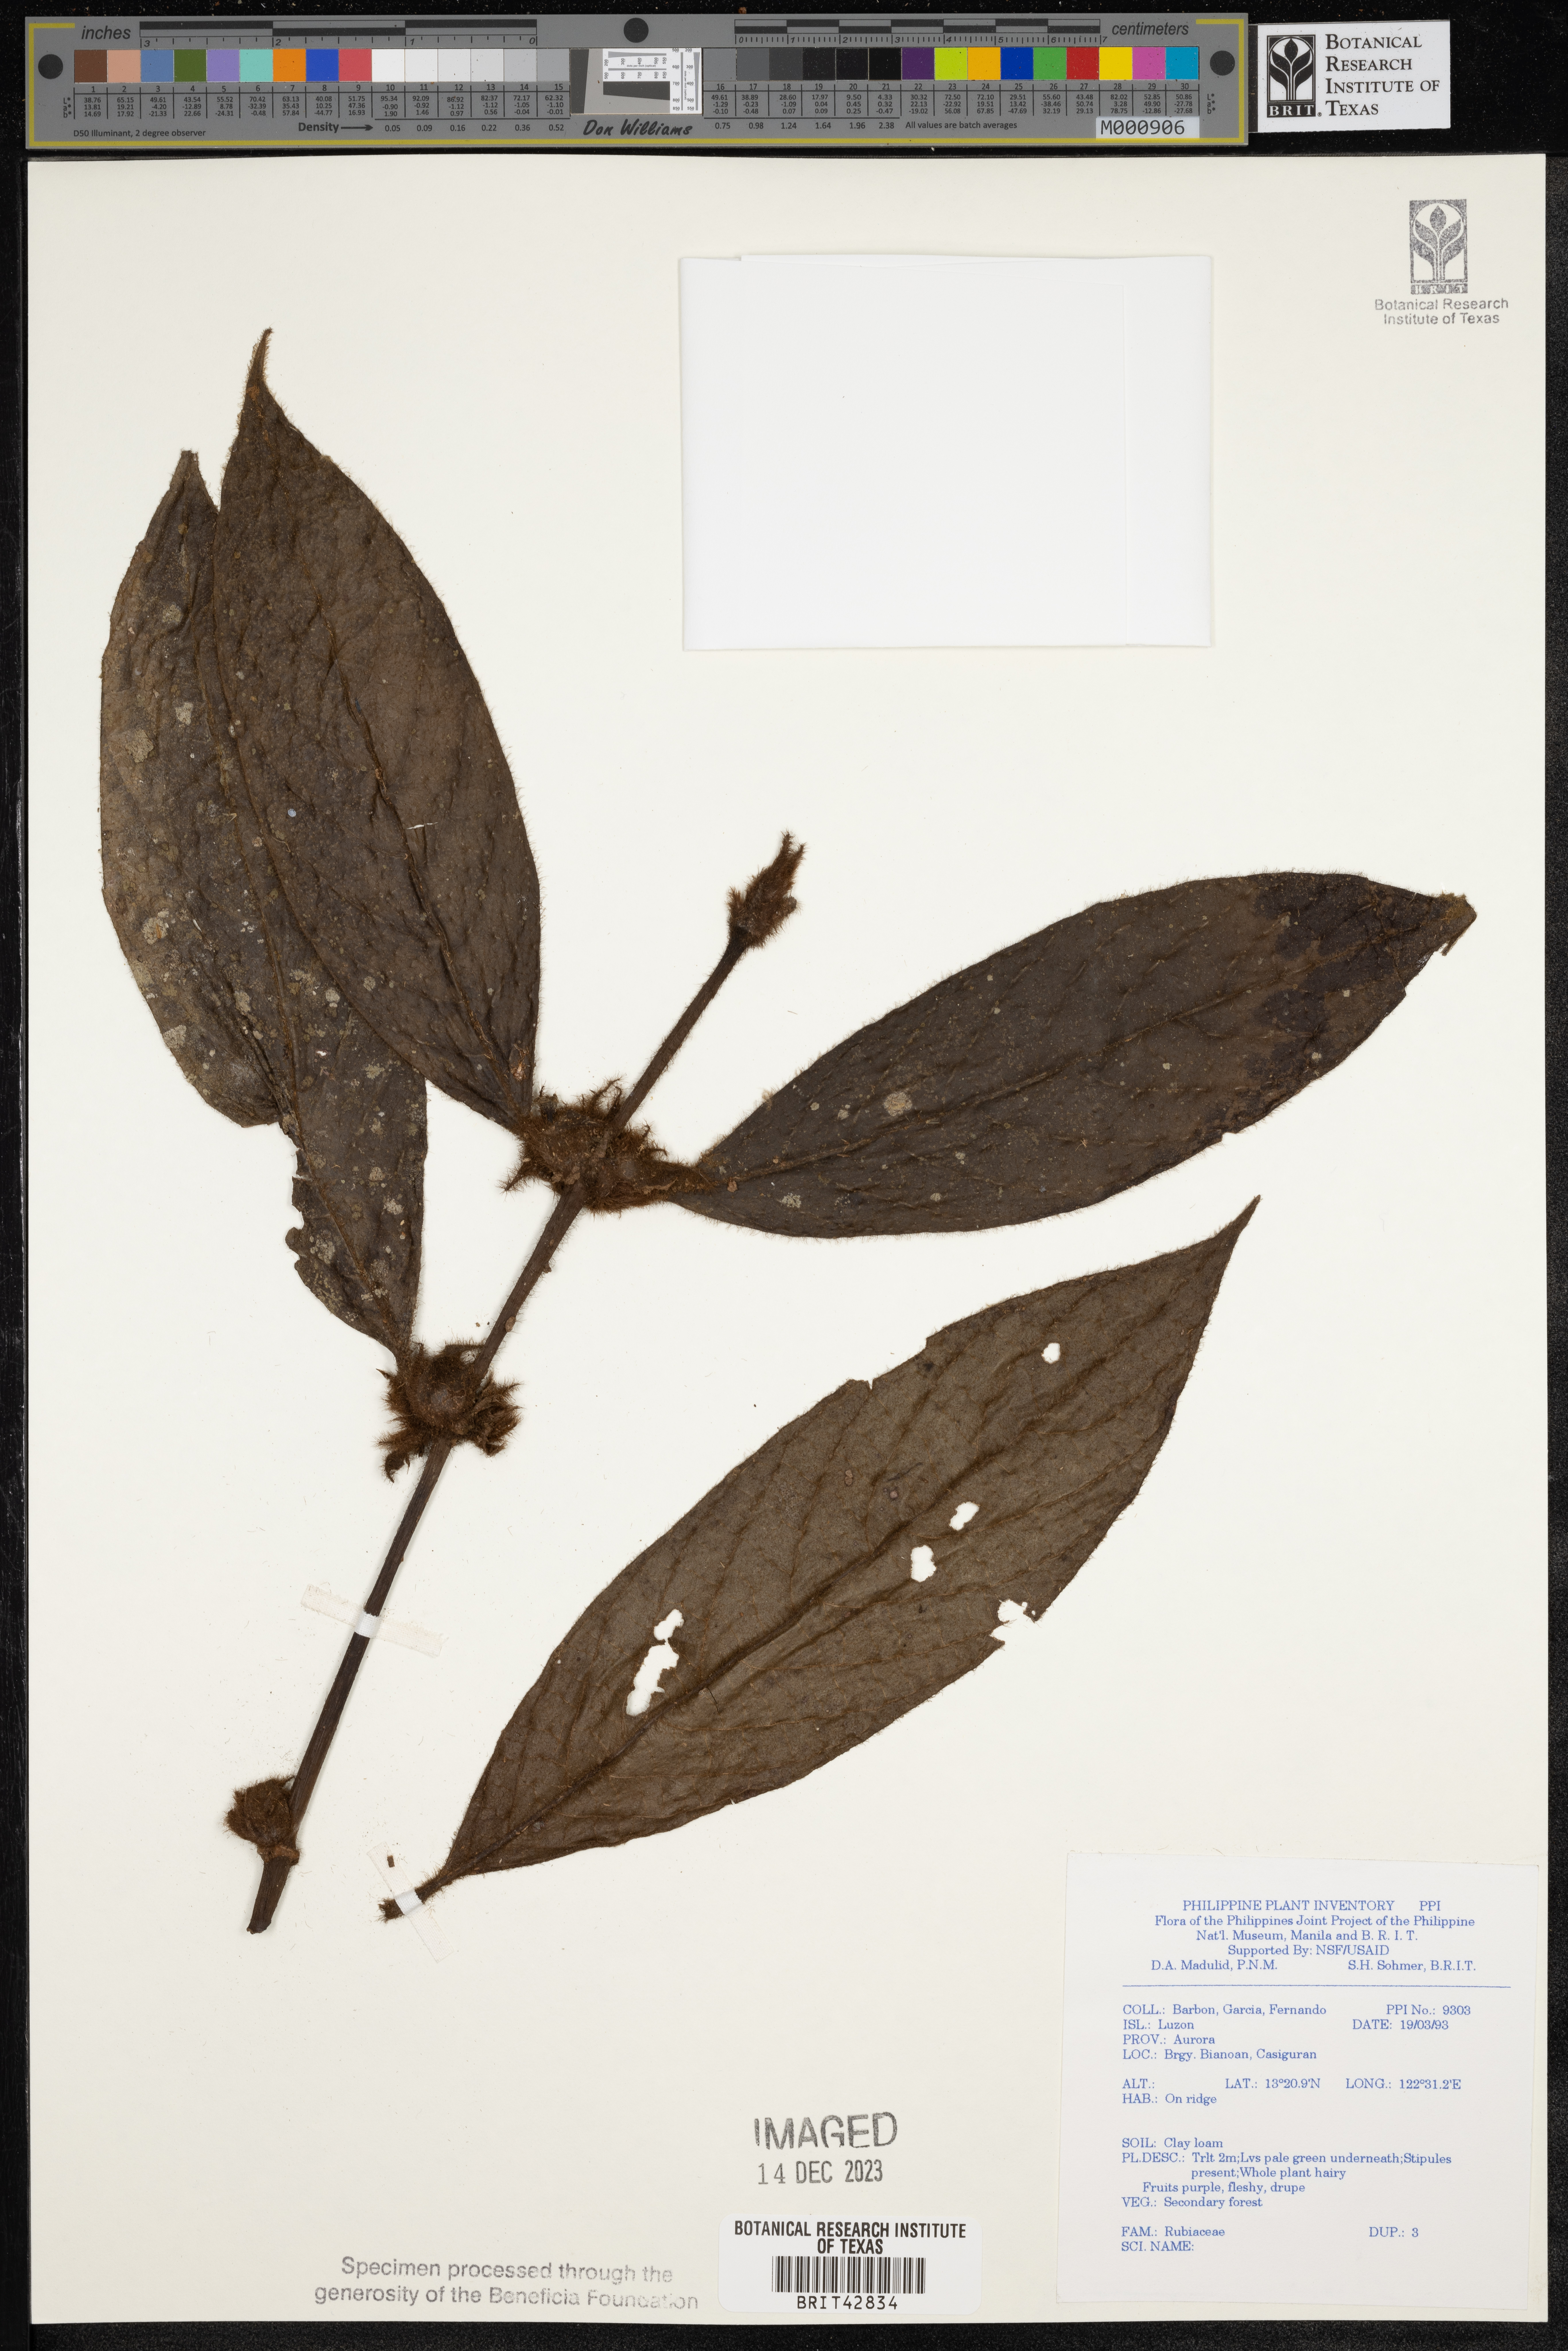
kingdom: Plantae
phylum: Tracheophyta
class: Magnoliopsida
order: Gentianales
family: Rubiaceae
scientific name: Rubiaceae
